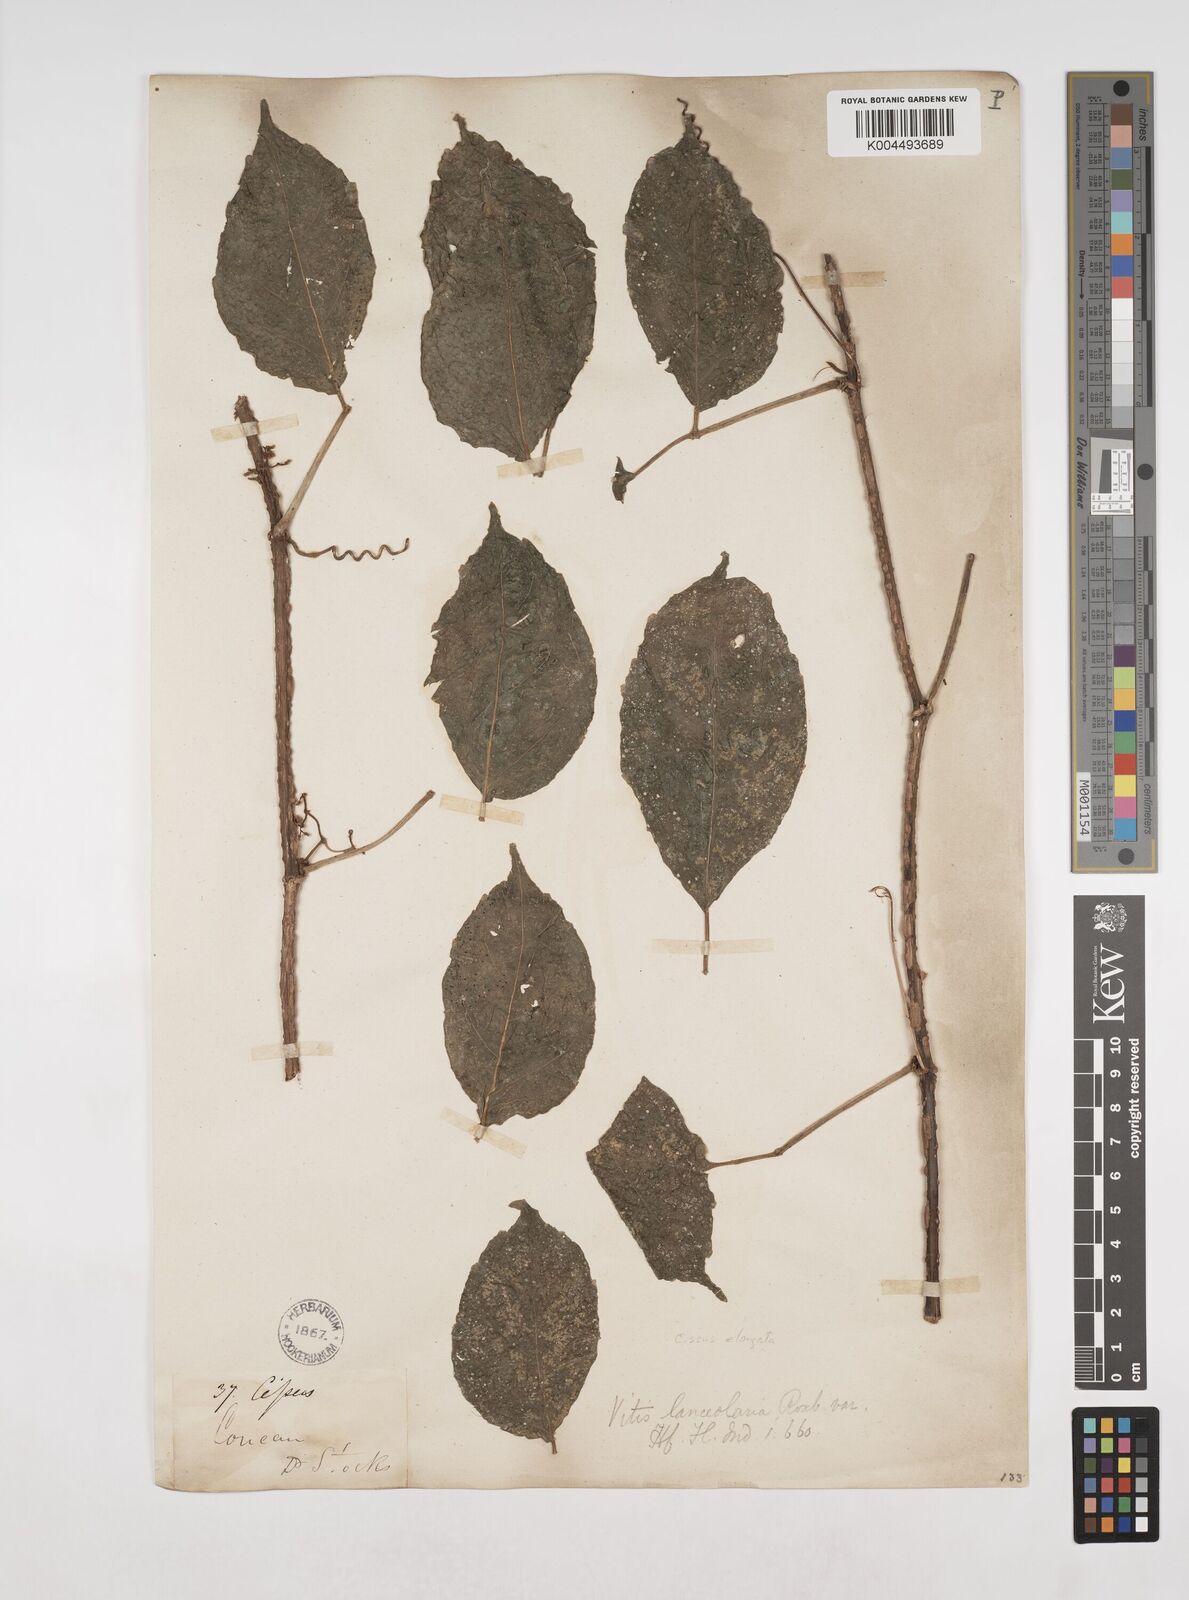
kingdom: Plantae
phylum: Tracheophyta
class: Magnoliopsida
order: Vitales
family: Vitaceae
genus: Tetrastigma
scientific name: Tetrastigma
